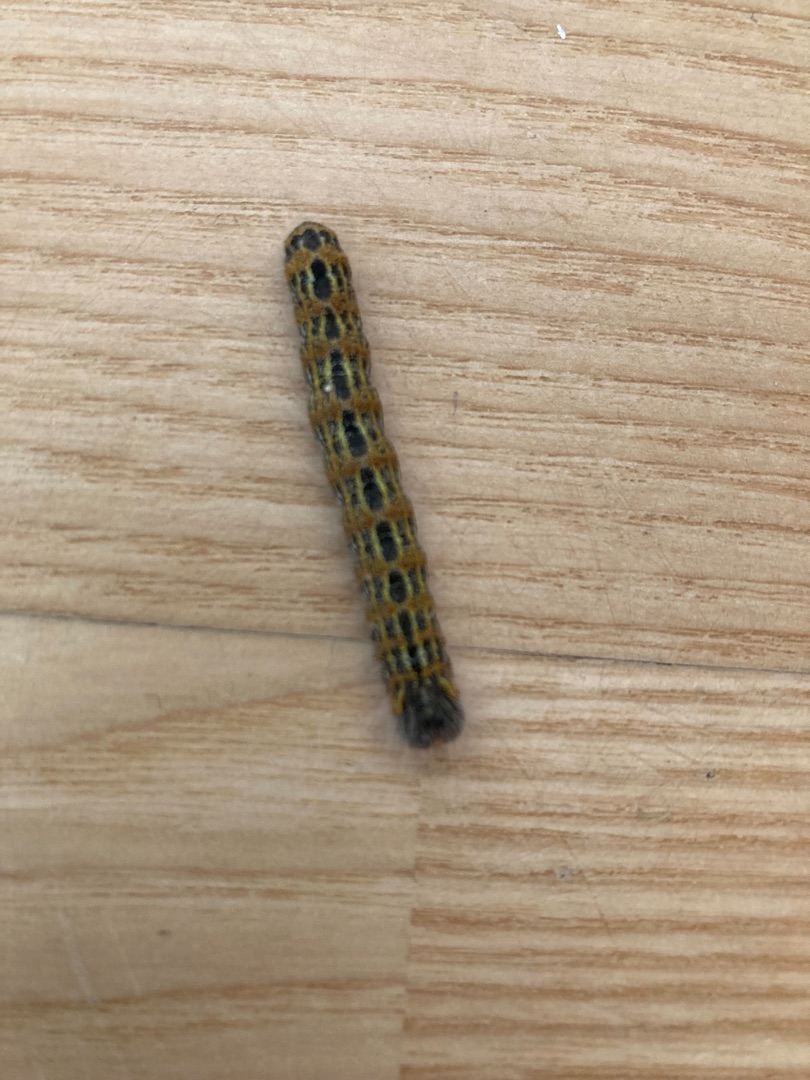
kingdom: Animalia
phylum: Arthropoda
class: Insecta
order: Lepidoptera
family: Notodontidae
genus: Phalera
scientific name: Phalera bucephala
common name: Måneplet
